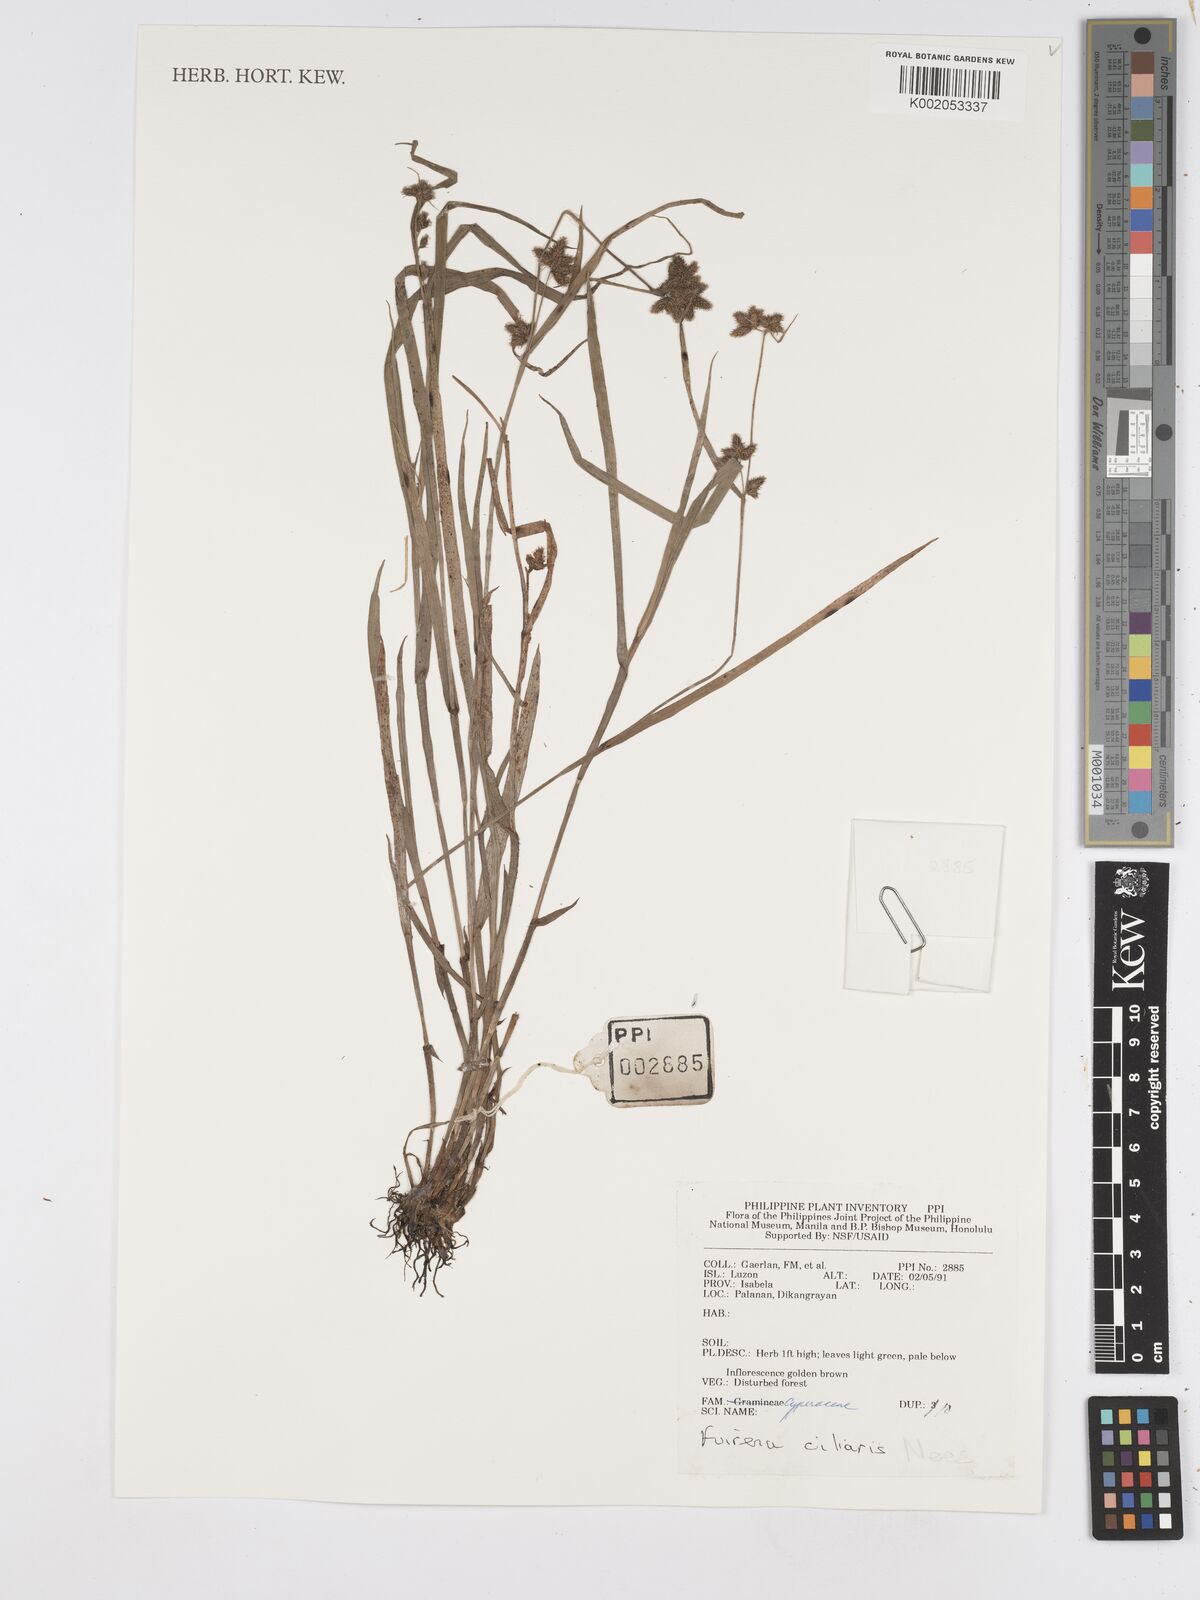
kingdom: Plantae
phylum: Tracheophyta
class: Liliopsida
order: Poales
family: Cyperaceae
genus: Fuirena
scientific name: Fuirena ciliaris
